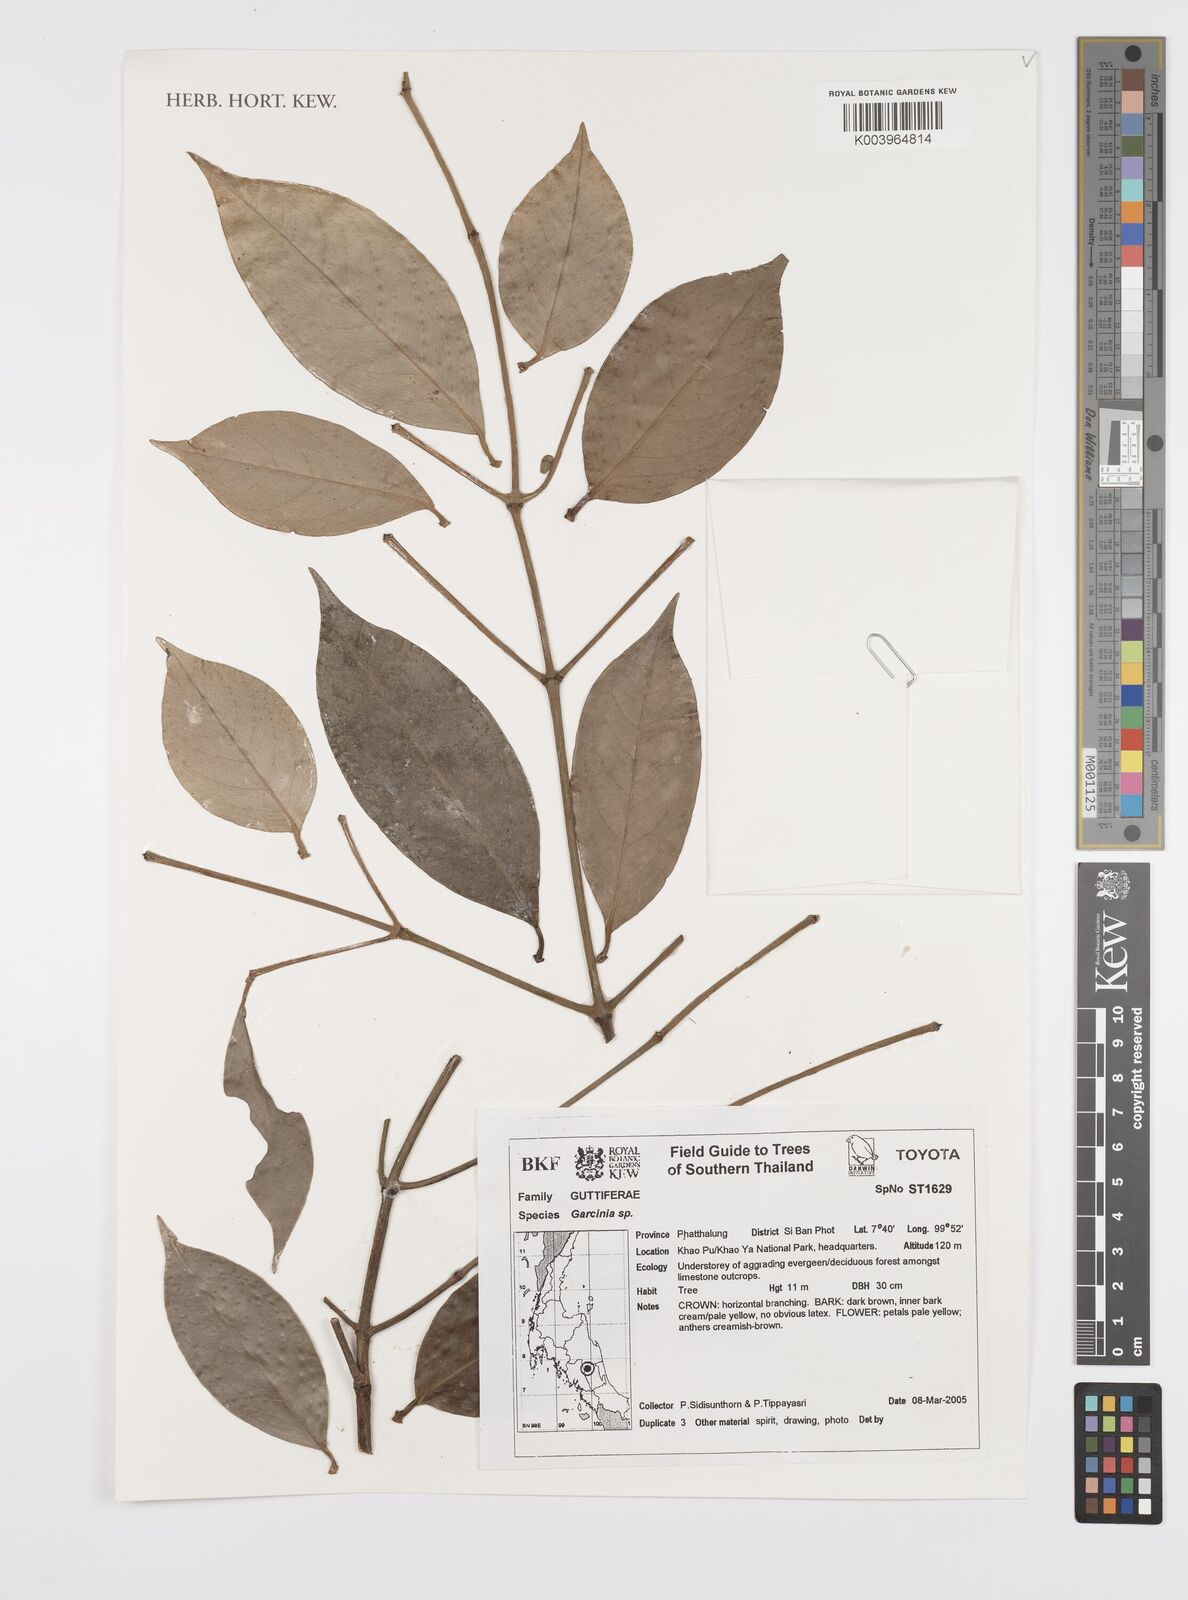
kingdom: Plantae
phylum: Tracheophyta
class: Magnoliopsida
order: Malpighiales
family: Clusiaceae
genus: Garcinia
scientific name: Garcinia
